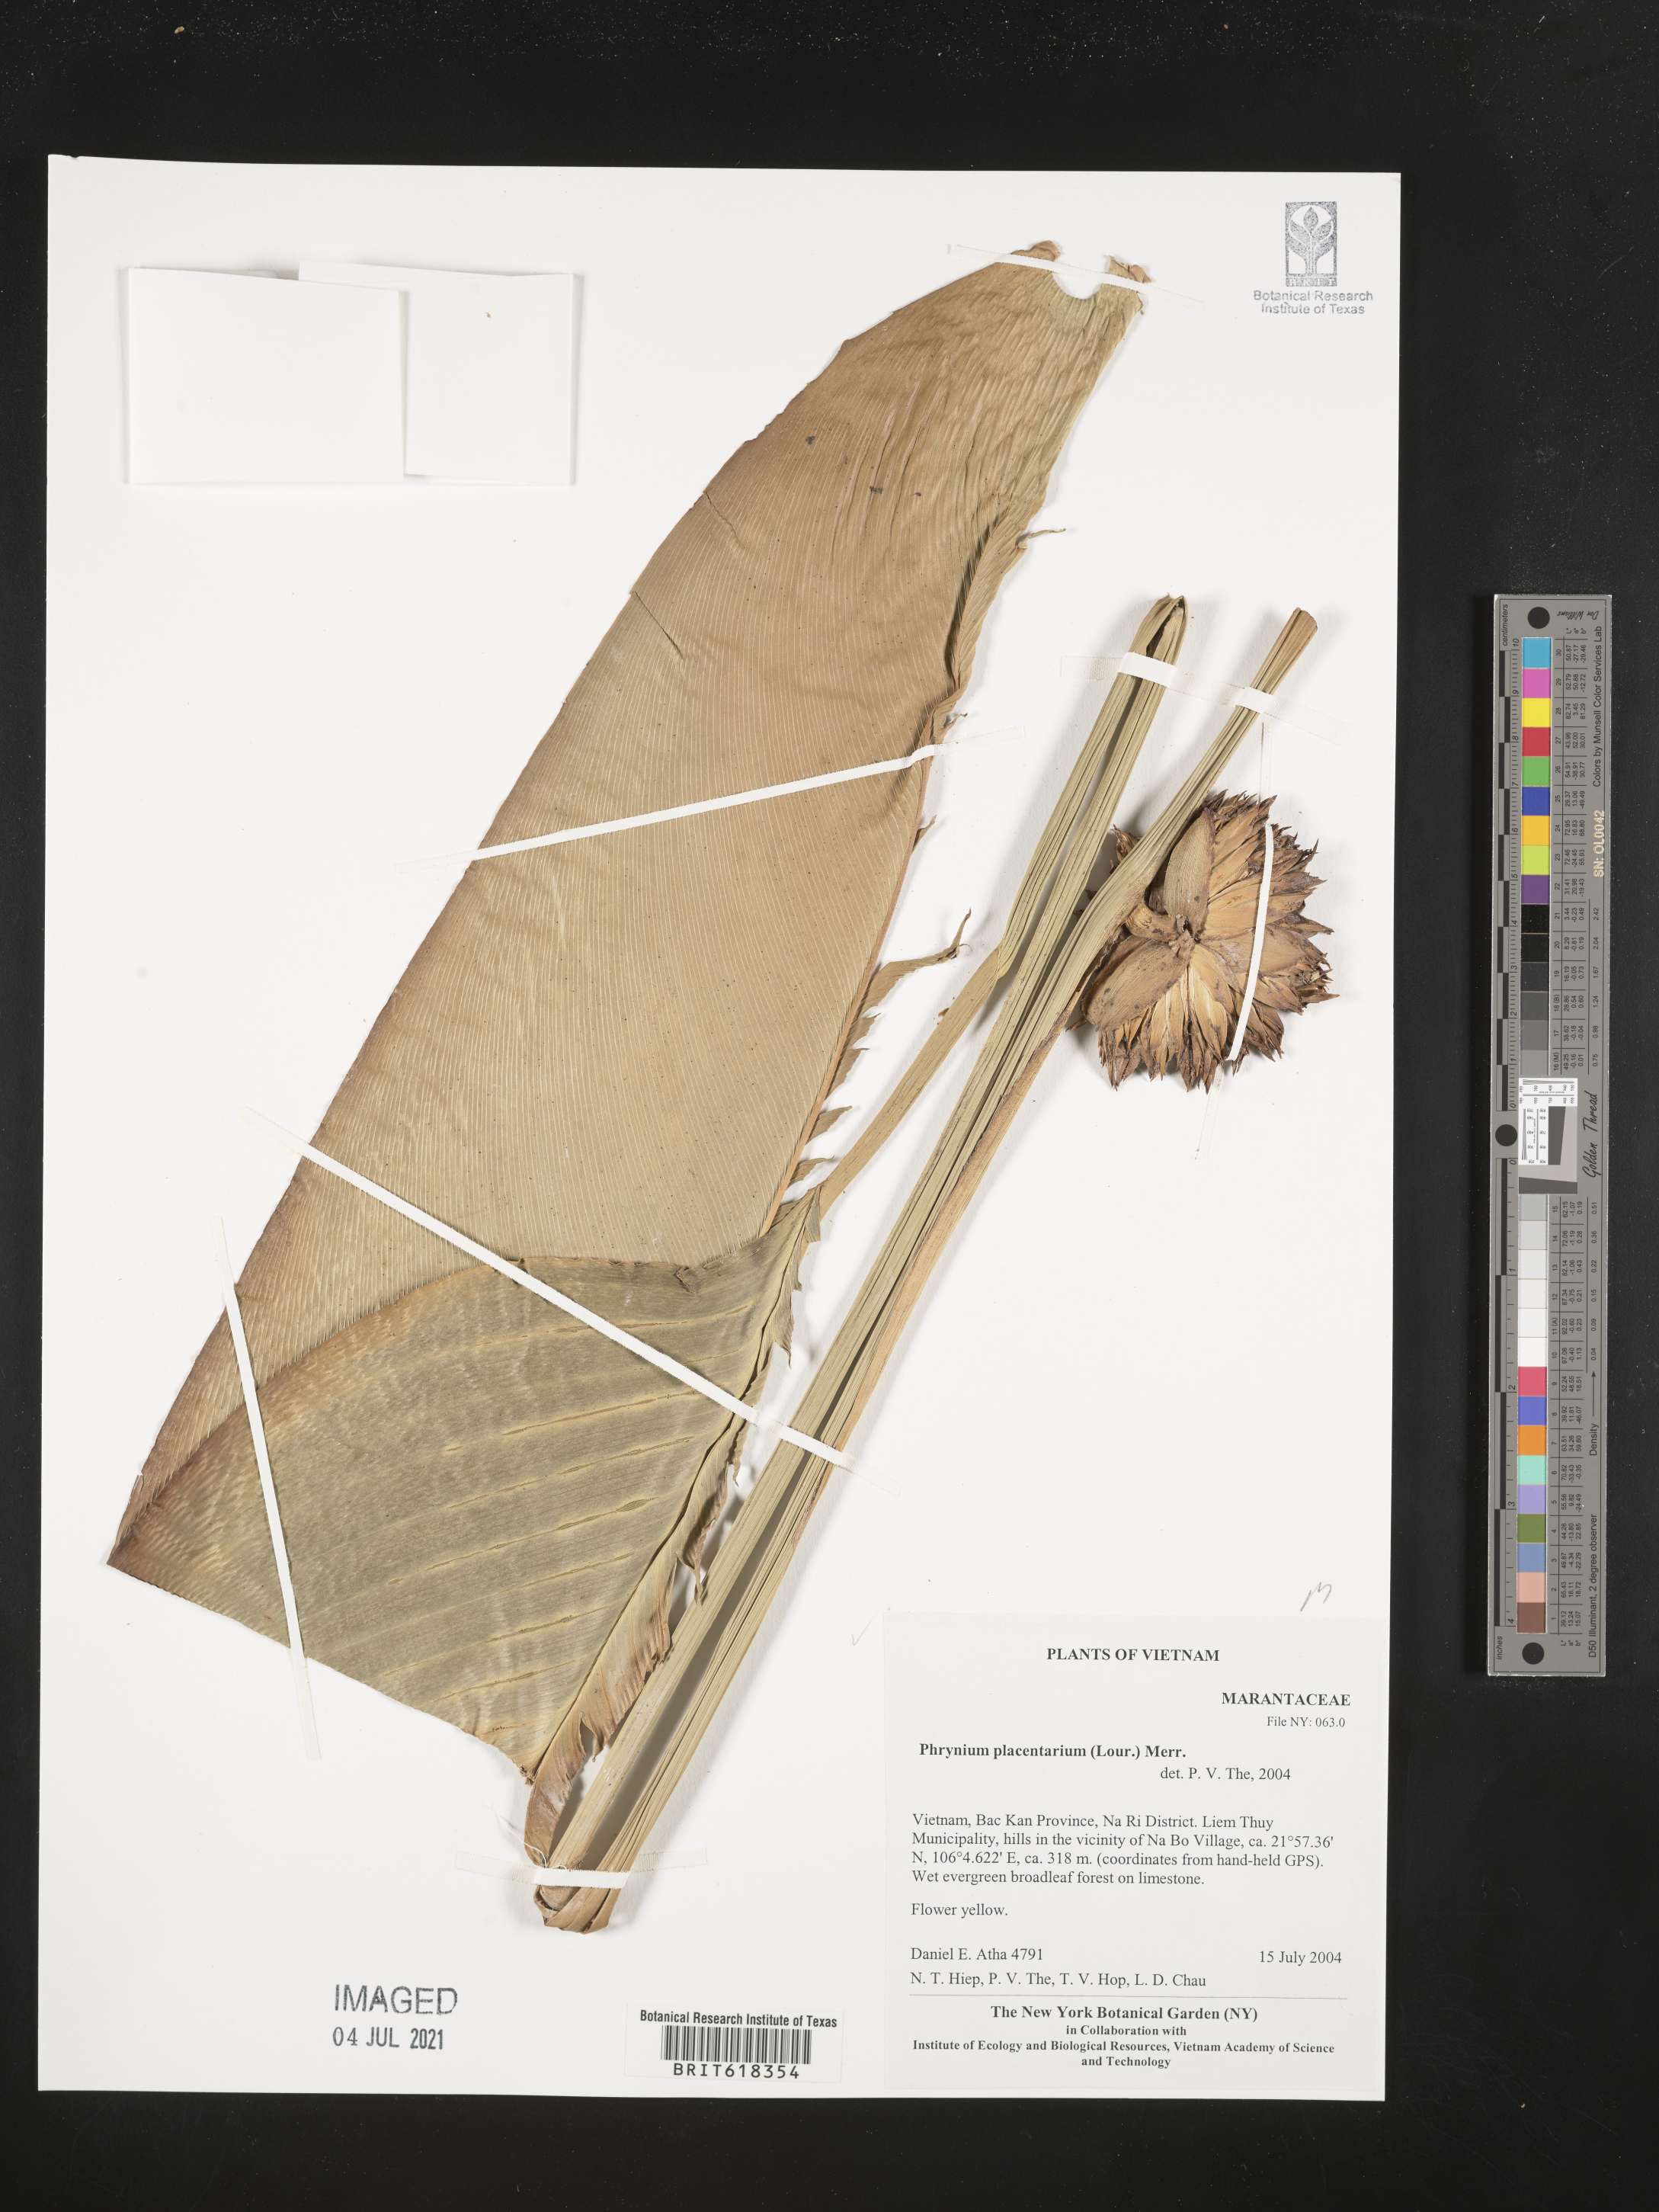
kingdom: Plantae
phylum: Tracheophyta
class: Liliopsida
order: Zingiberales
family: Marantaceae
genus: Stachyphrynium
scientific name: Stachyphrynium placentarium
